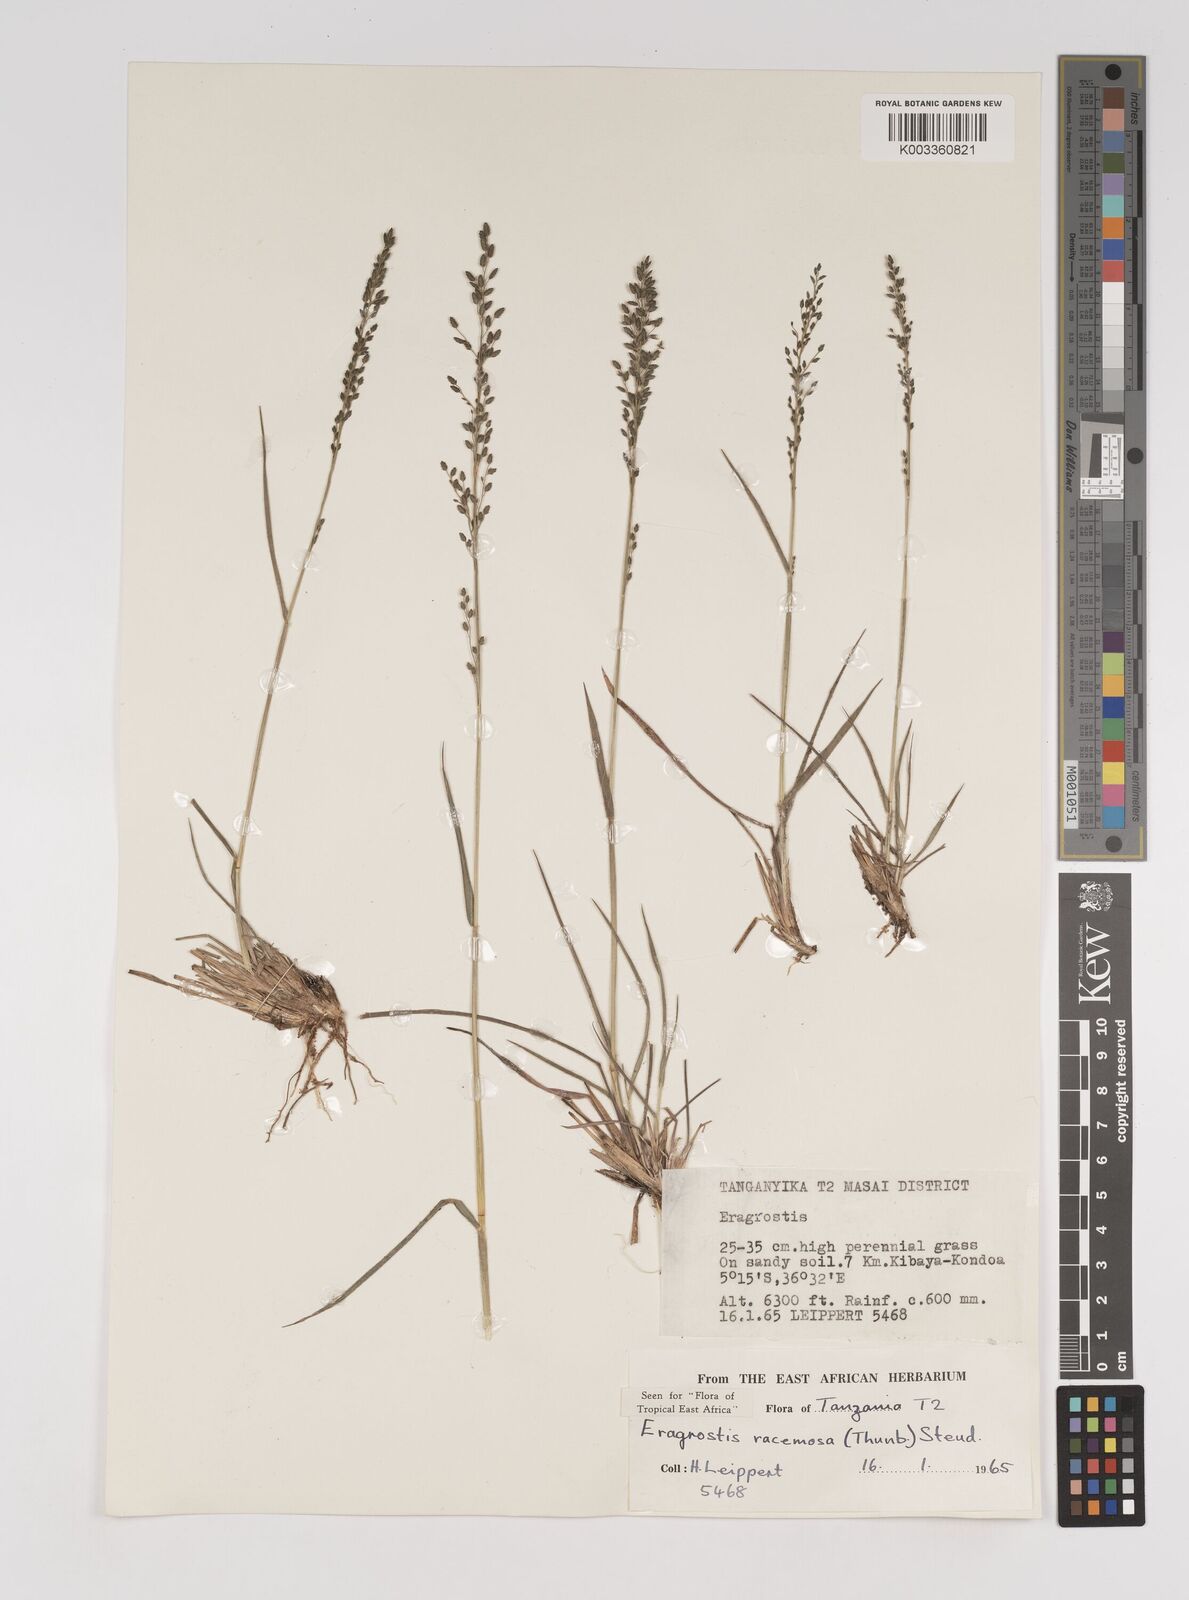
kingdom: Plantae
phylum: Tracheophyta
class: Liliopsida
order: Poales
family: Poaceae
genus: Eragrostis
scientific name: Eragrostis racemosa
